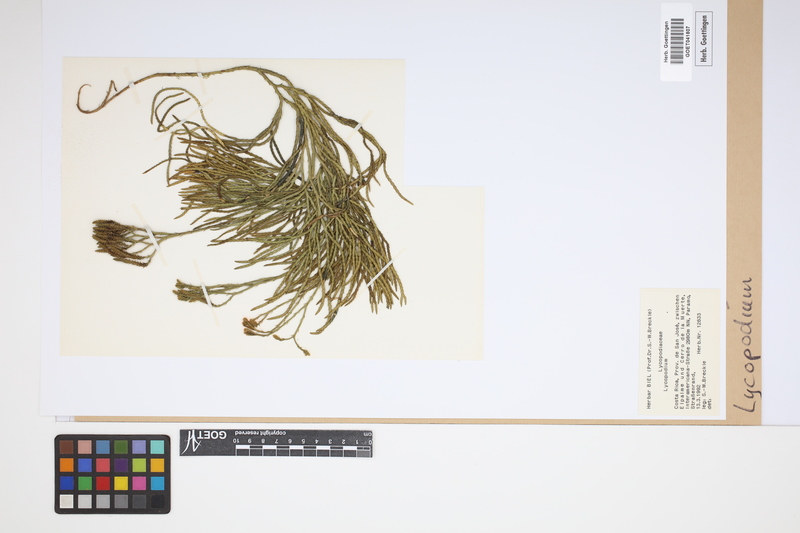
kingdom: Plantae
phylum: Tracheophyta
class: Lycopodiopsida
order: Lycopodiales
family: Lycopodiaceae
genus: Lycopodium
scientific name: Lycopodium
